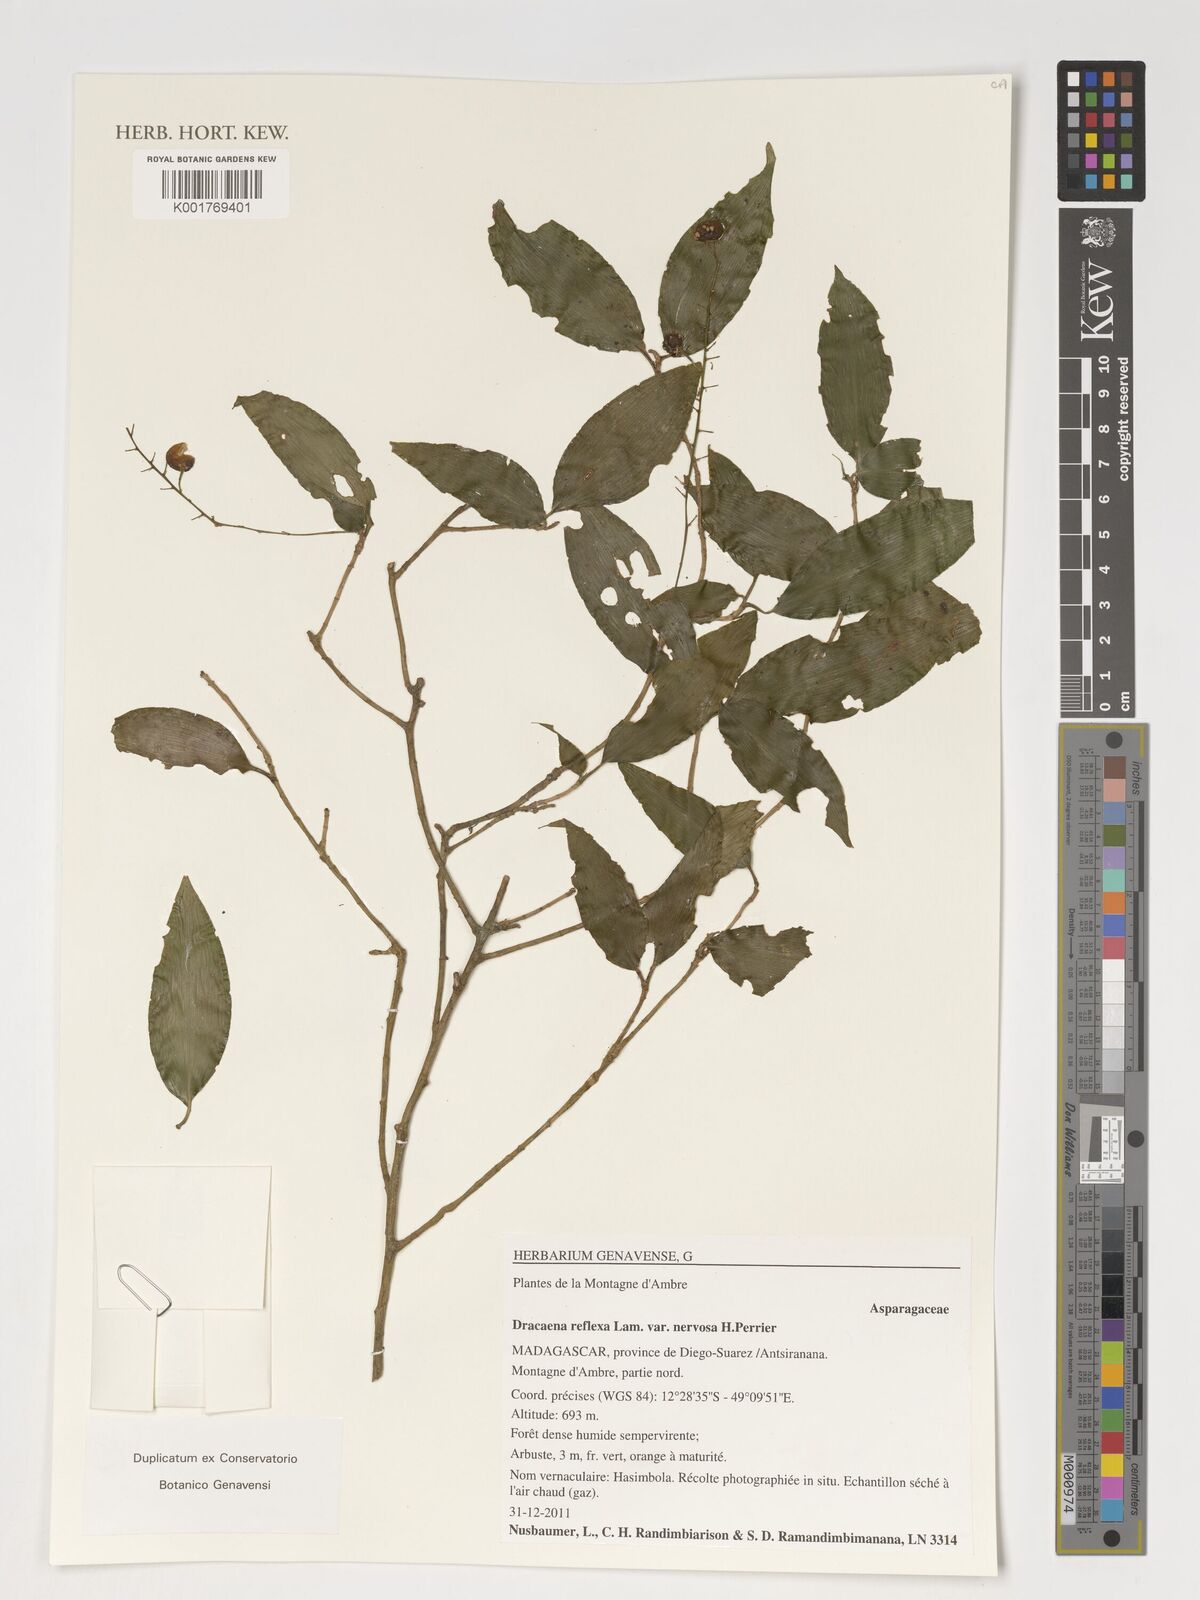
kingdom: Plantae
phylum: Tracheophyta
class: Liliopsida
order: Asparagales
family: Asparagaceae
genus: Dracaena
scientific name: Dracaena reflexa
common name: Song-of-india
